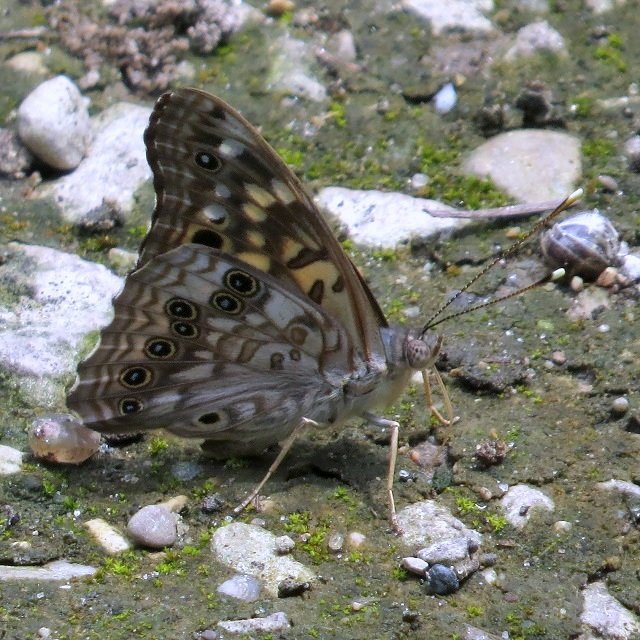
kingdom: Animalia
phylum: Arthropoda
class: Insecta
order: Lepidoptera
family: Nymphalidae
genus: Asterocampa
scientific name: Asterocampa celtis
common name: Hackberry Emperor
